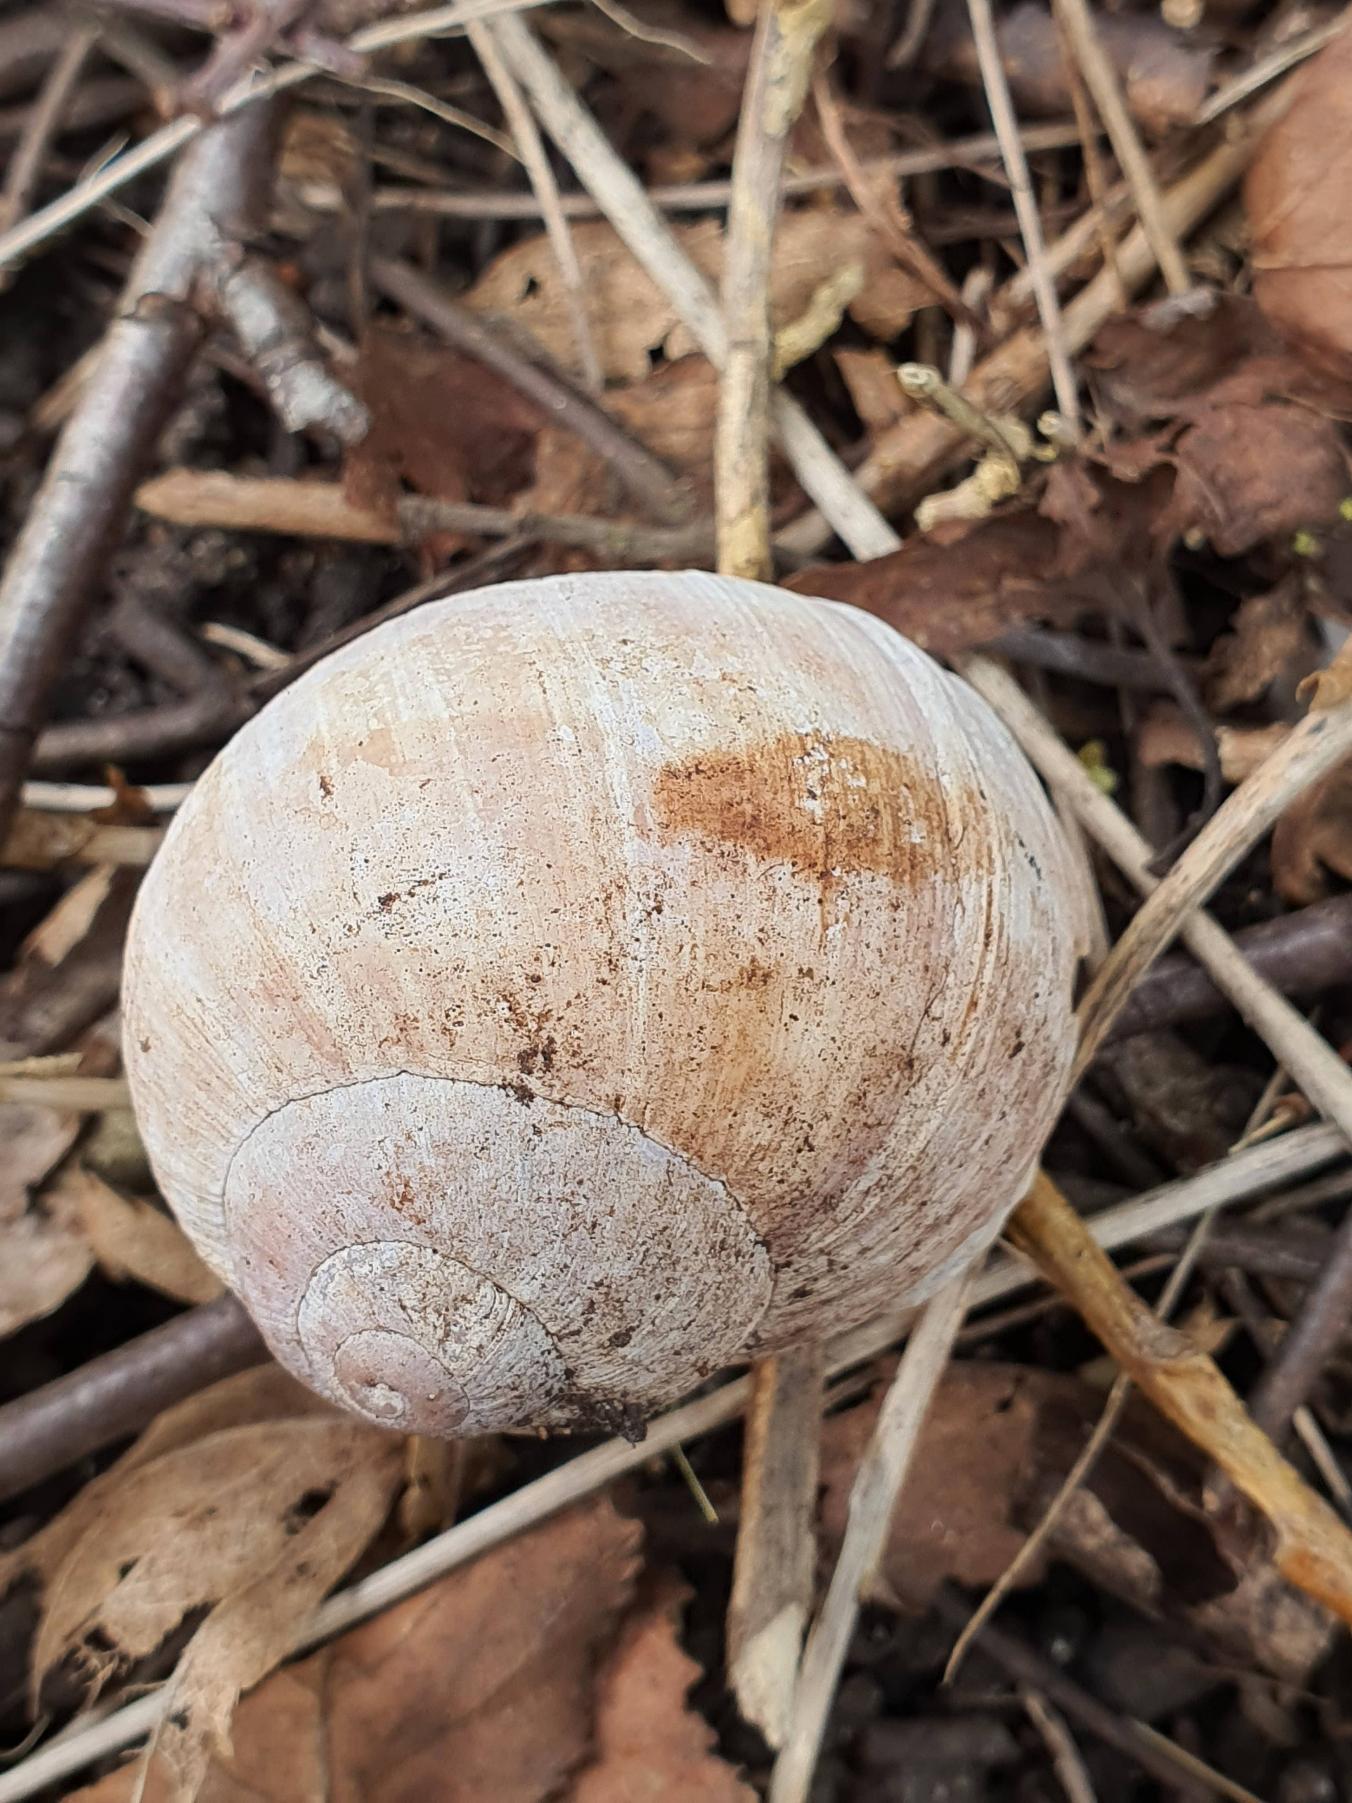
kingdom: Animalia
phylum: Mollusca
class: Gastropoda
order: Stylommatophora
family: Helicidae
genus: Helix
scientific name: Helix pomatia
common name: Vinbjergsnegl
